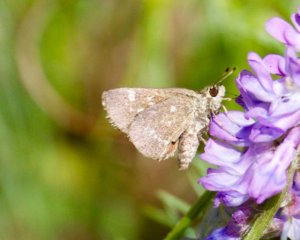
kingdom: Animalia
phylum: Arthropoda
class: Insecta
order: Lepidoptera
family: Hesperiidae
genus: Mastor
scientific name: Mastor hegon
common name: Pepper and Salt Skipper
